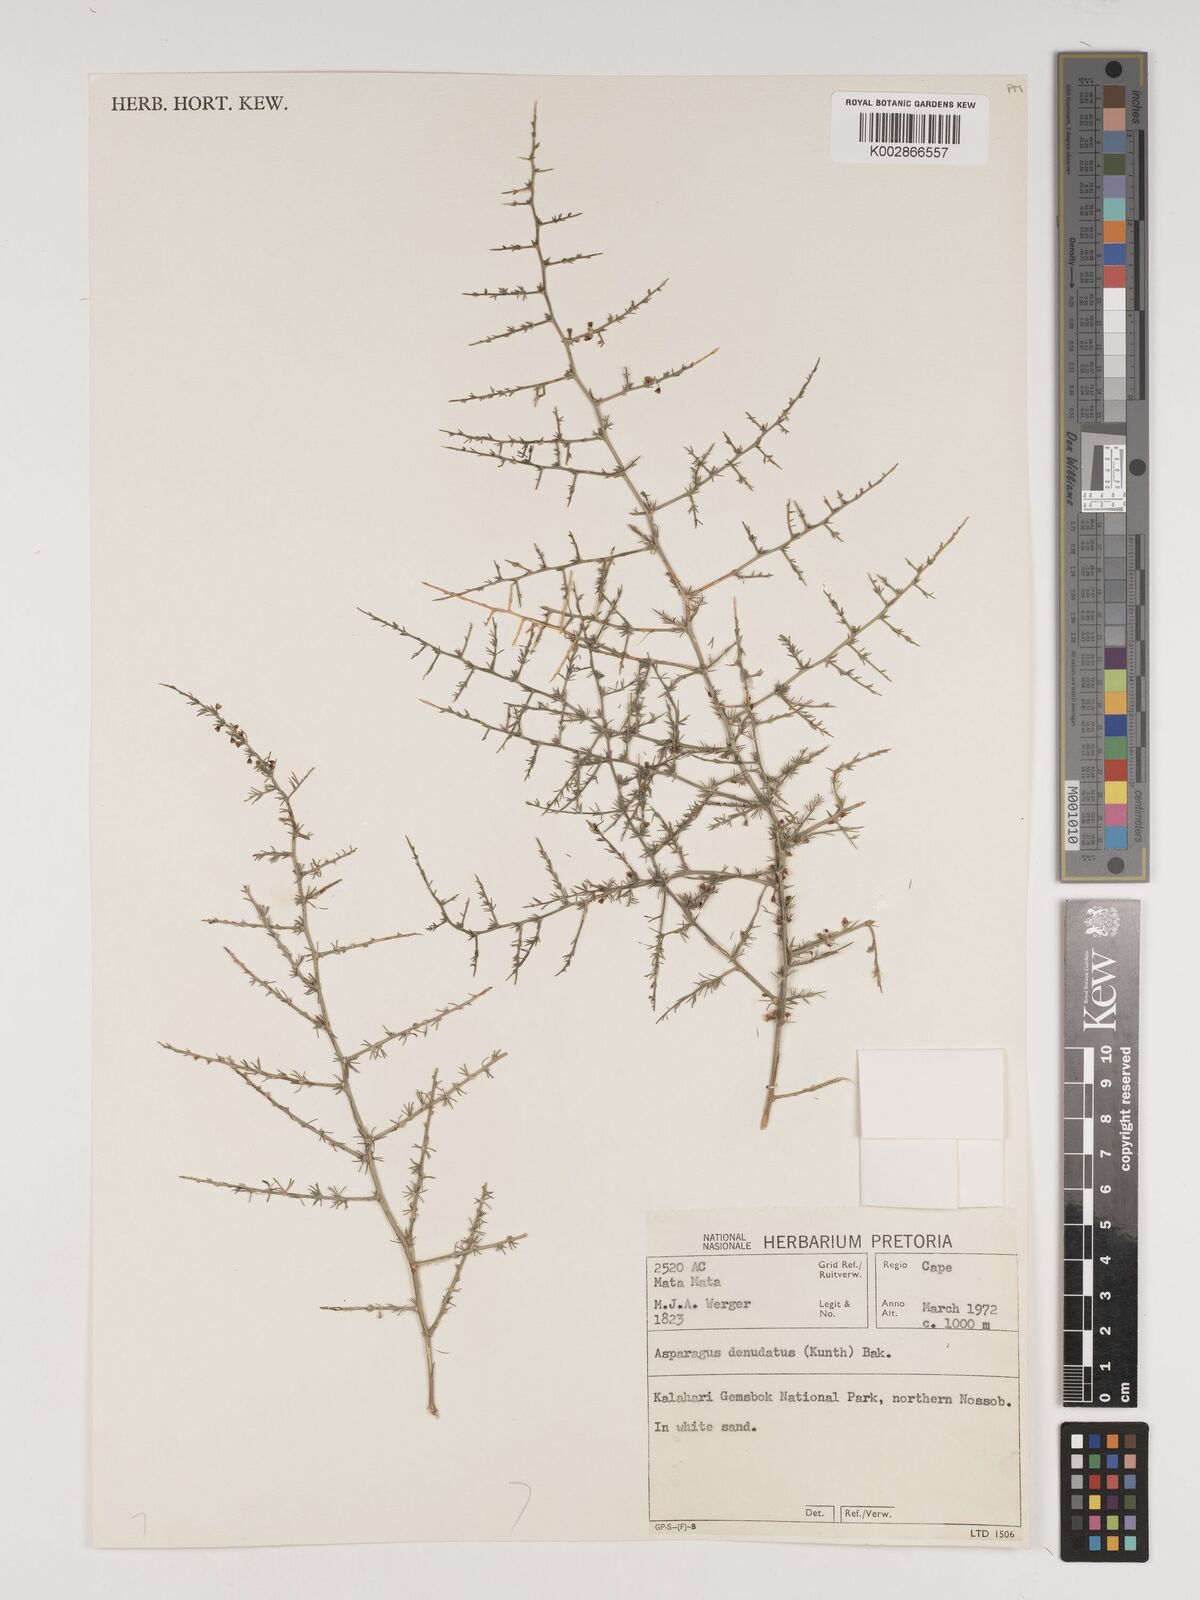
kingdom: Plantae
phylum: Tracheophyta
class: Liliopsida
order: Asparagales
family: Asparagaceae
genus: Asparagus
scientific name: Asparagus denudatus
